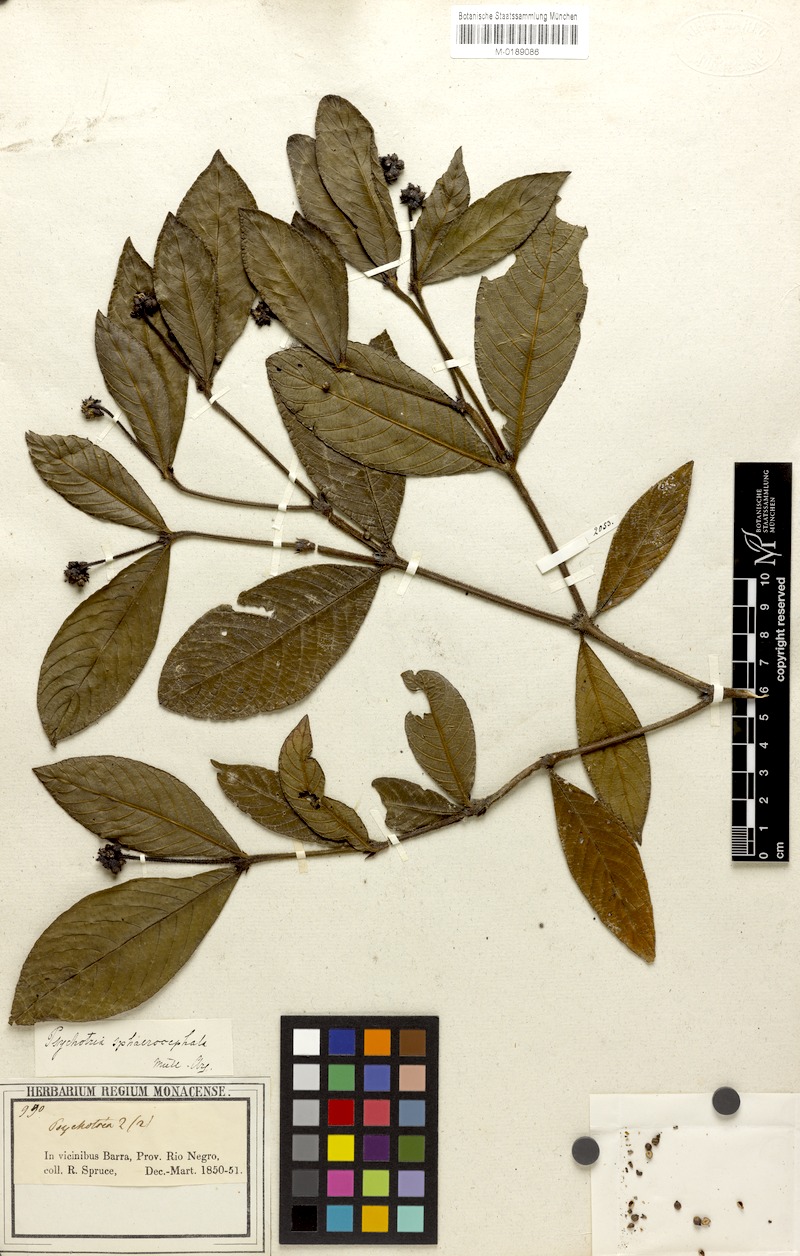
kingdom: Plantae
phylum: Tracheophyta
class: Magnoliopsida
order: Gentianales
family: Rubiaceae
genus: Palicourea
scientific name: Palicourea sphaerocephala
